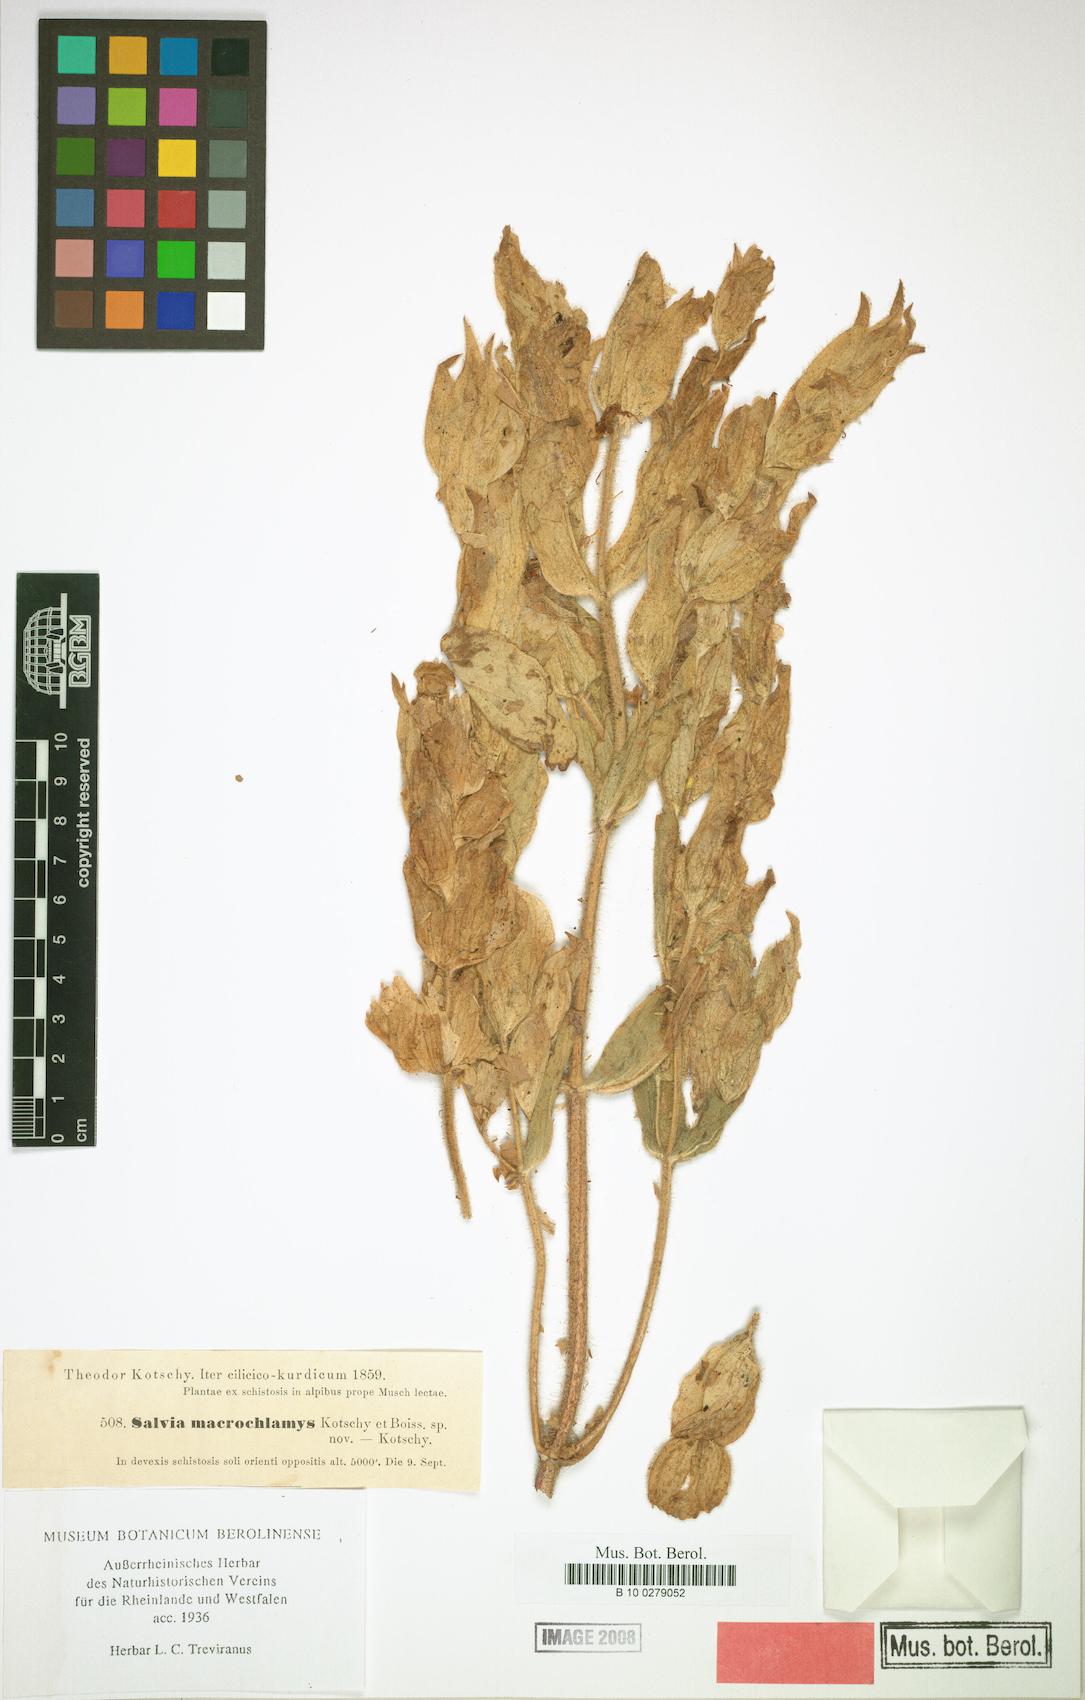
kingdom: Plantae
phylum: Tracheophyta
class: Magnoliopsida
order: Lamiales
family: Lamiaceae
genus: Salvia
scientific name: Salvia macrochlamys
